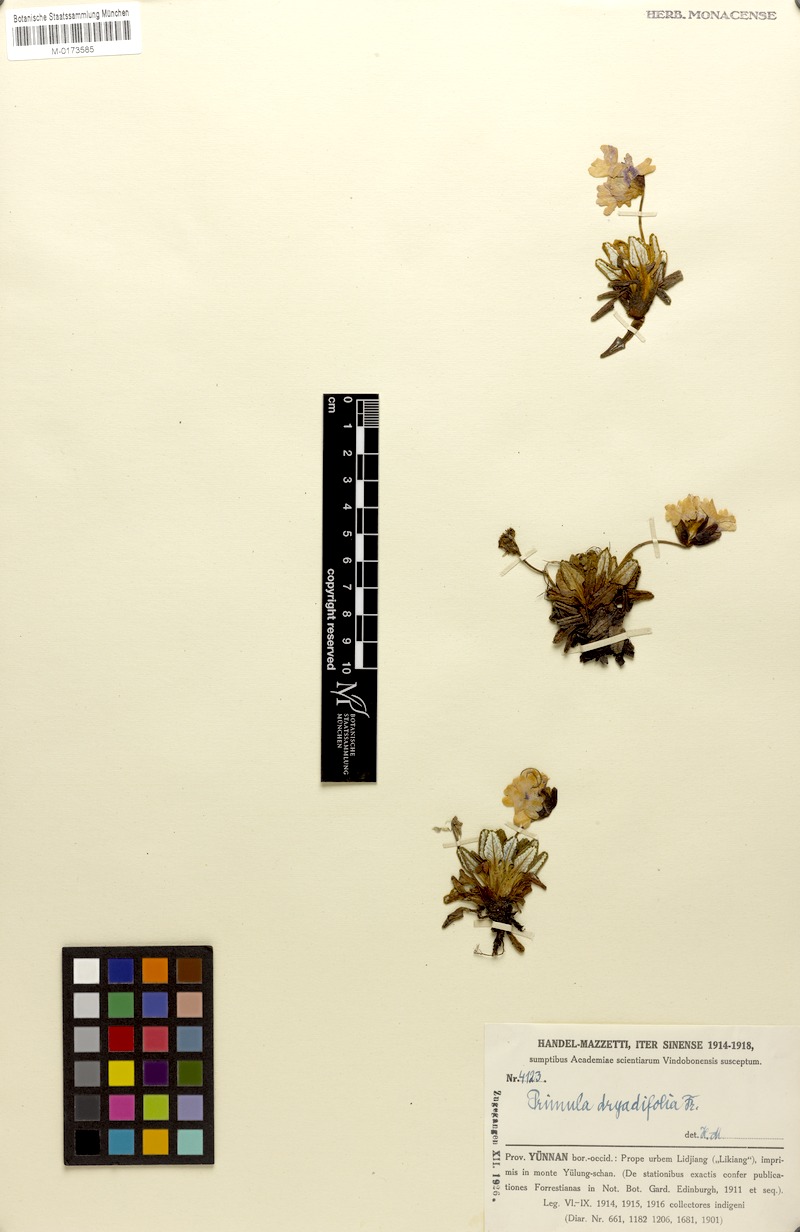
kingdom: Plantae
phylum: Tracheophyta
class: Magnoliopsida
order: Ericales
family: Primulaceae
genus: Primula
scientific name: Primula dryadifolia
